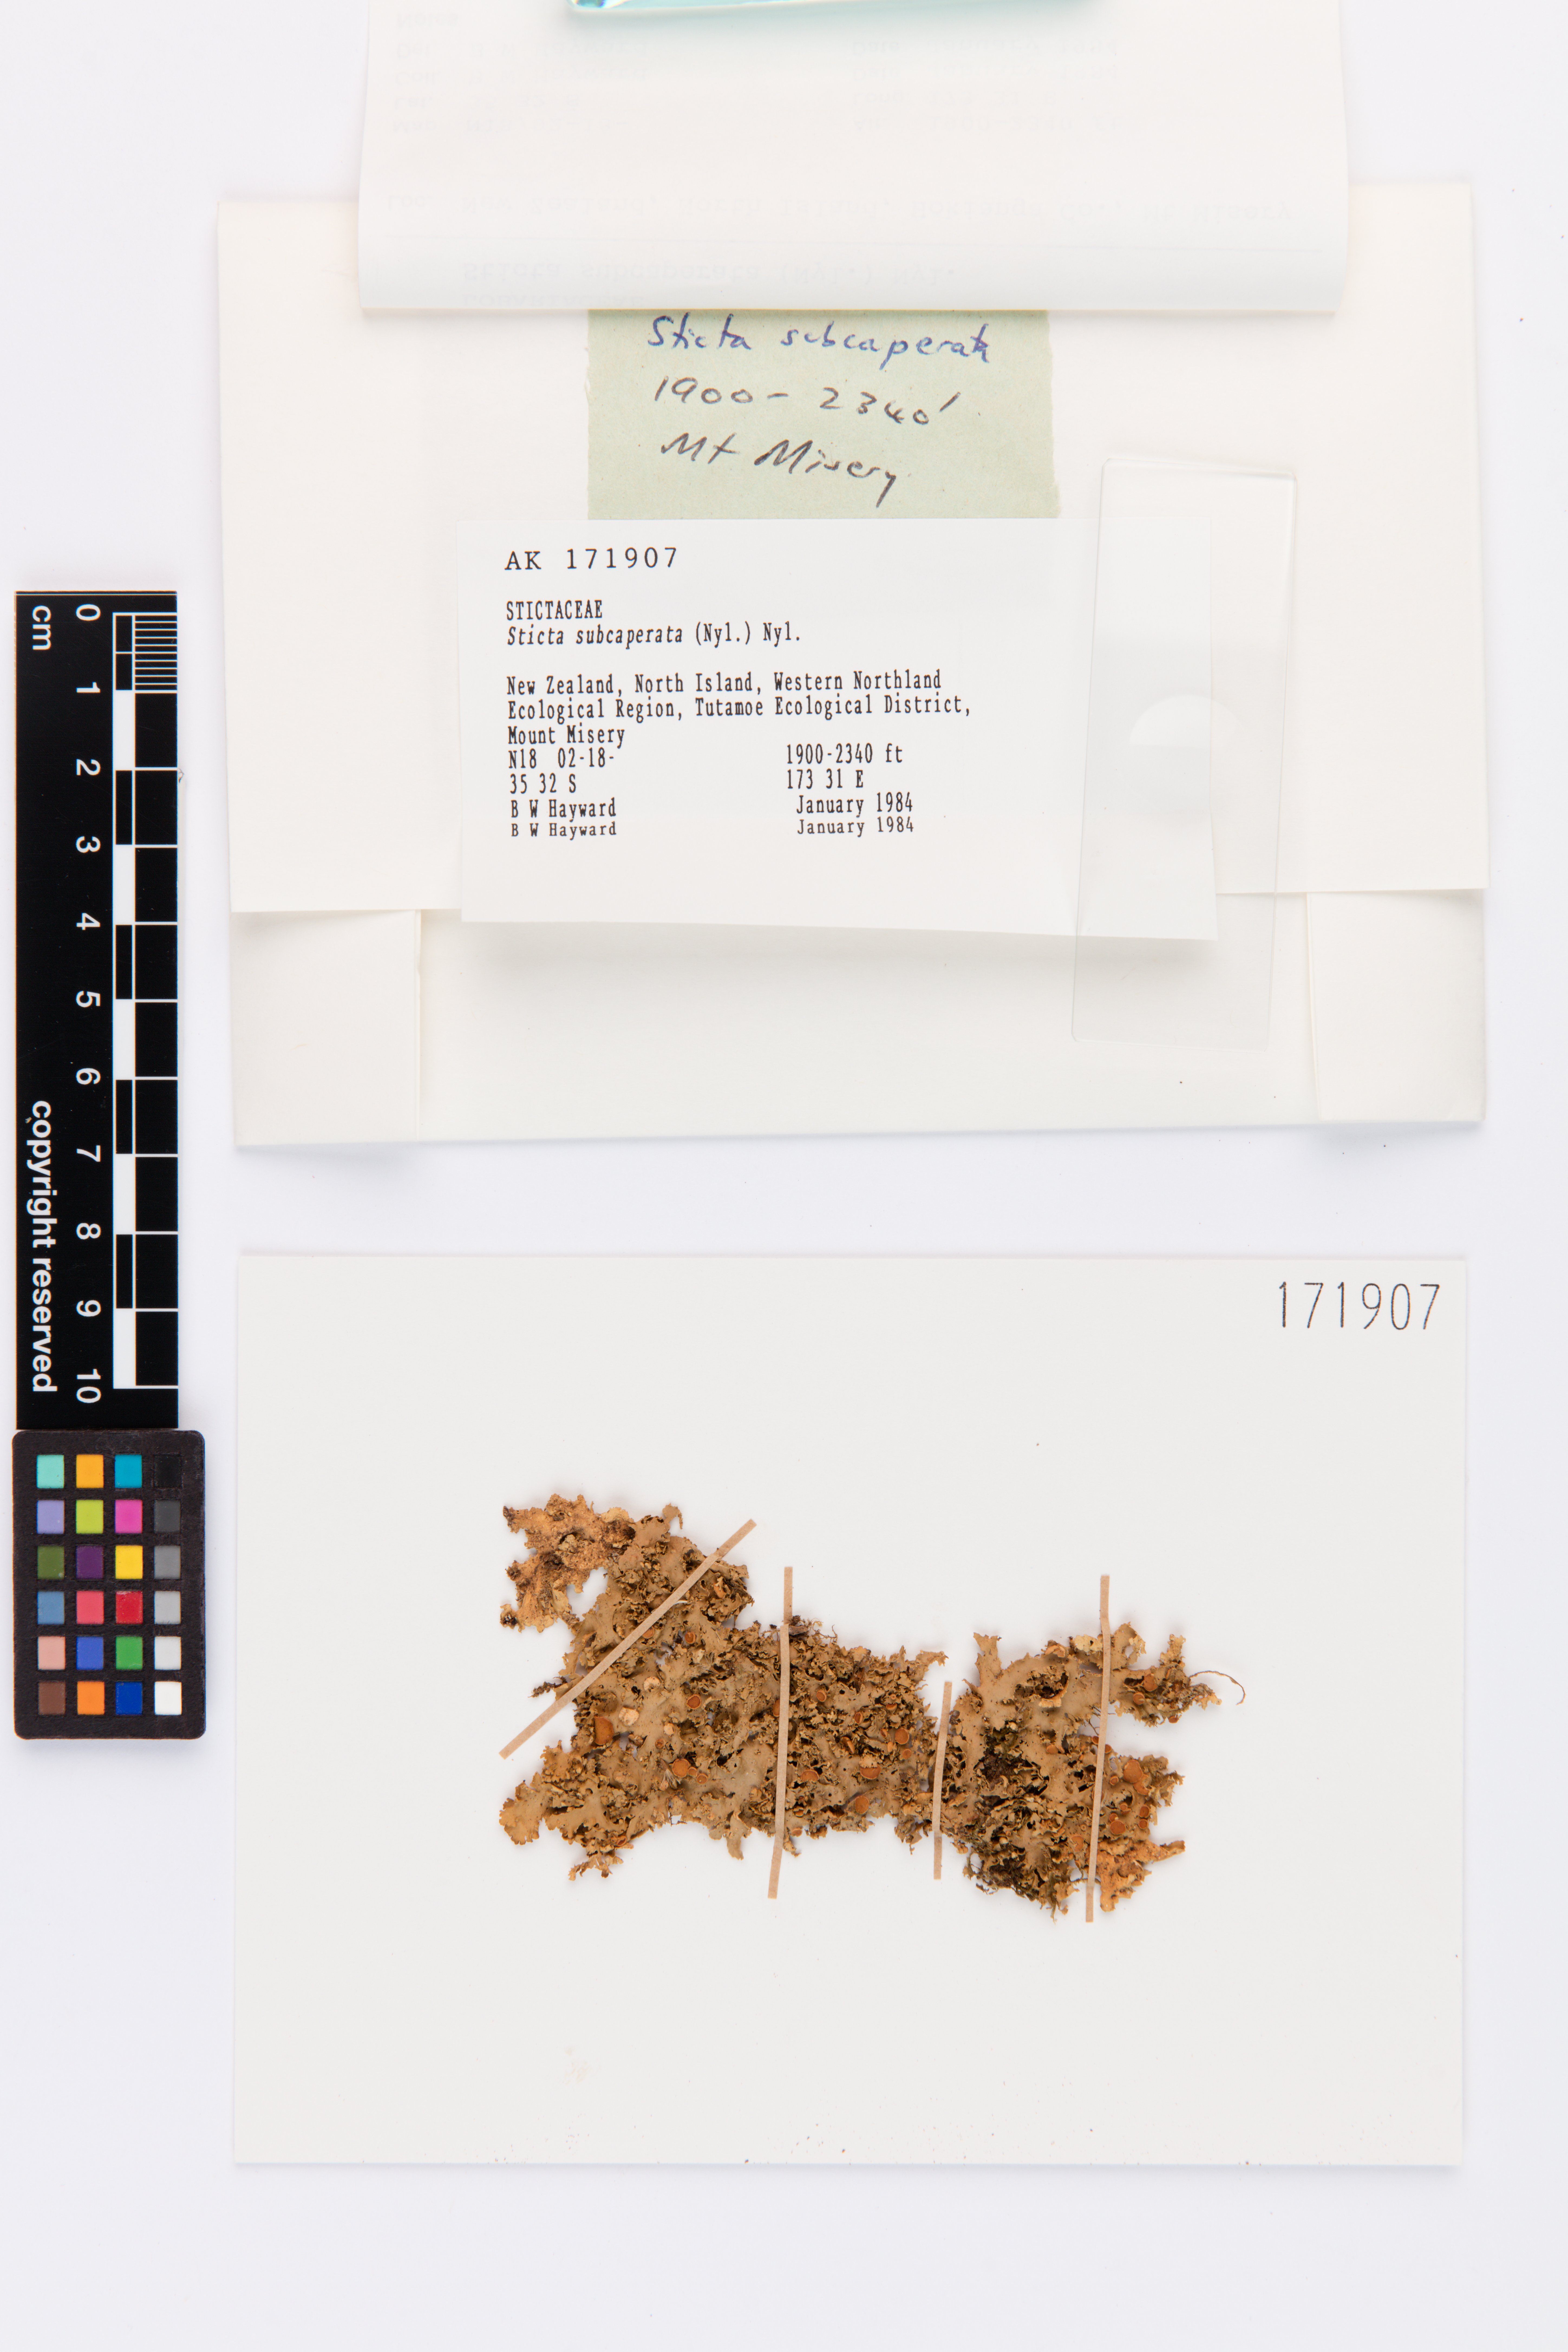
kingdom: Fungi
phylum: Ascomycota
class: Lecanoromycetes
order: Peltigerales
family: Lobariaceae
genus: Sticta
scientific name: Sticta subcaperata
